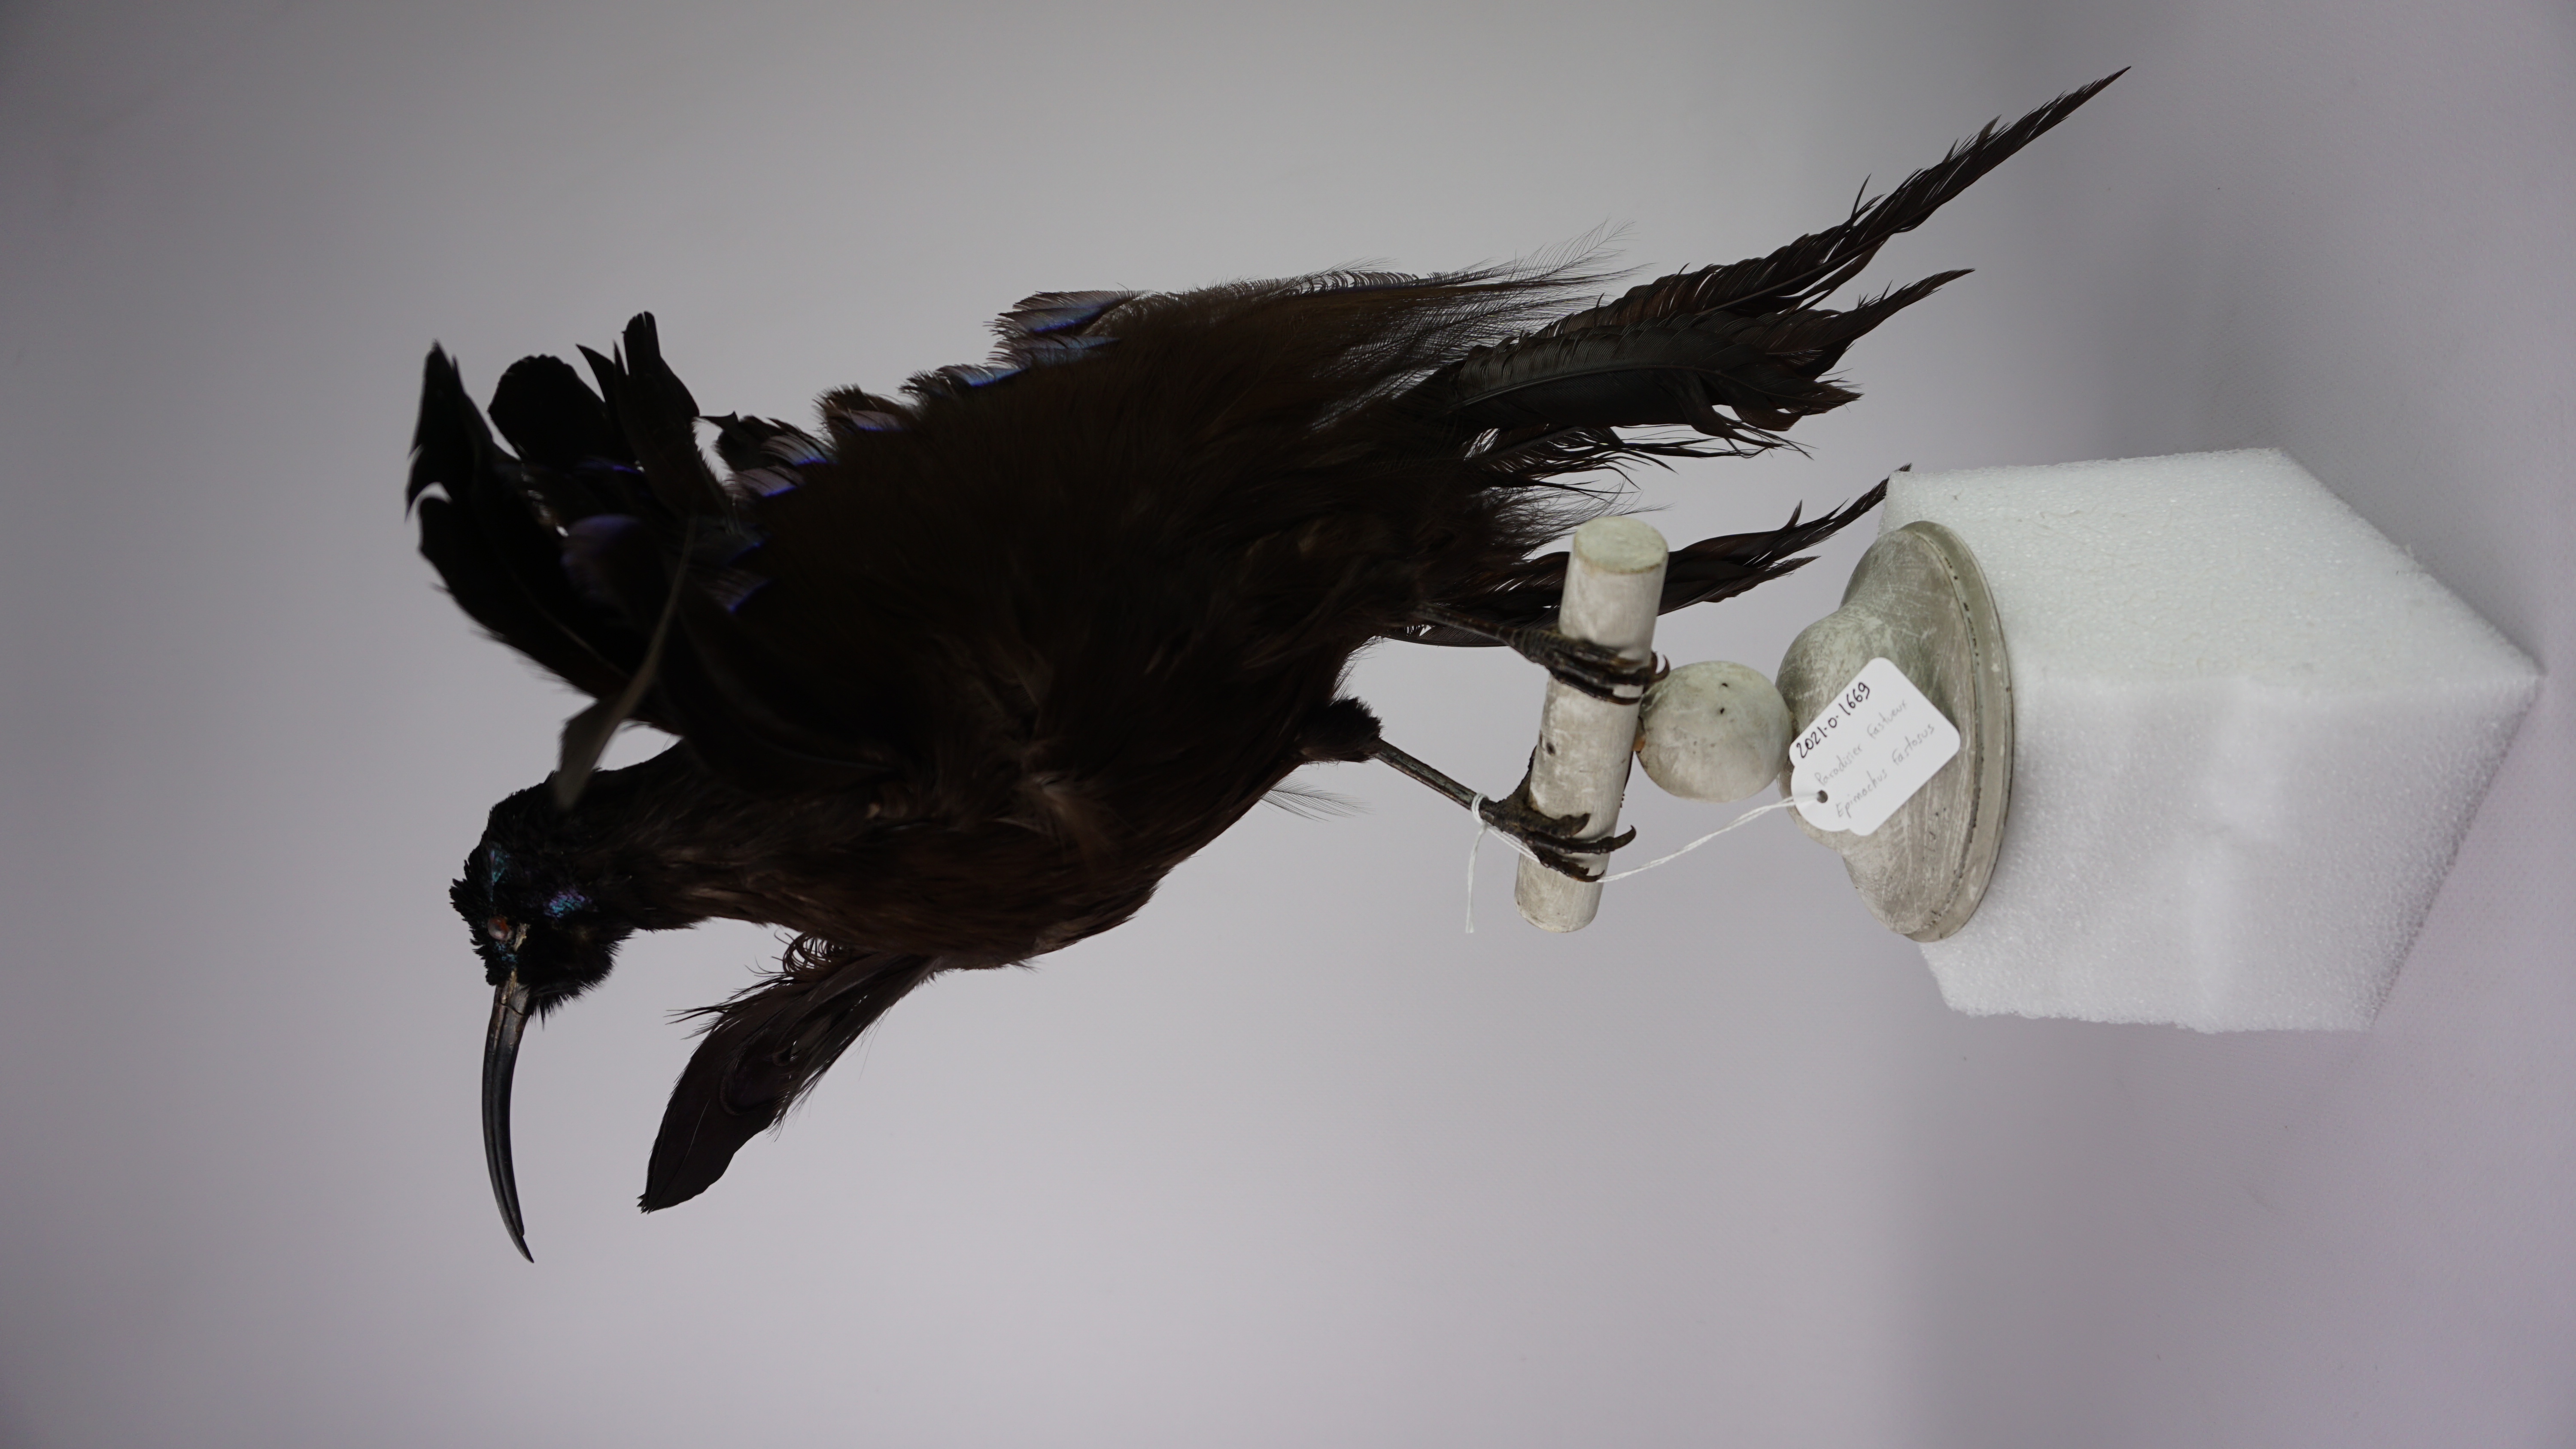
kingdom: Animalia
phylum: Chordata
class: Aves
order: Passeriformes
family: Paradisaeidae
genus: Epimachus
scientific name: Epimachus fastosus
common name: Black sicklebill
